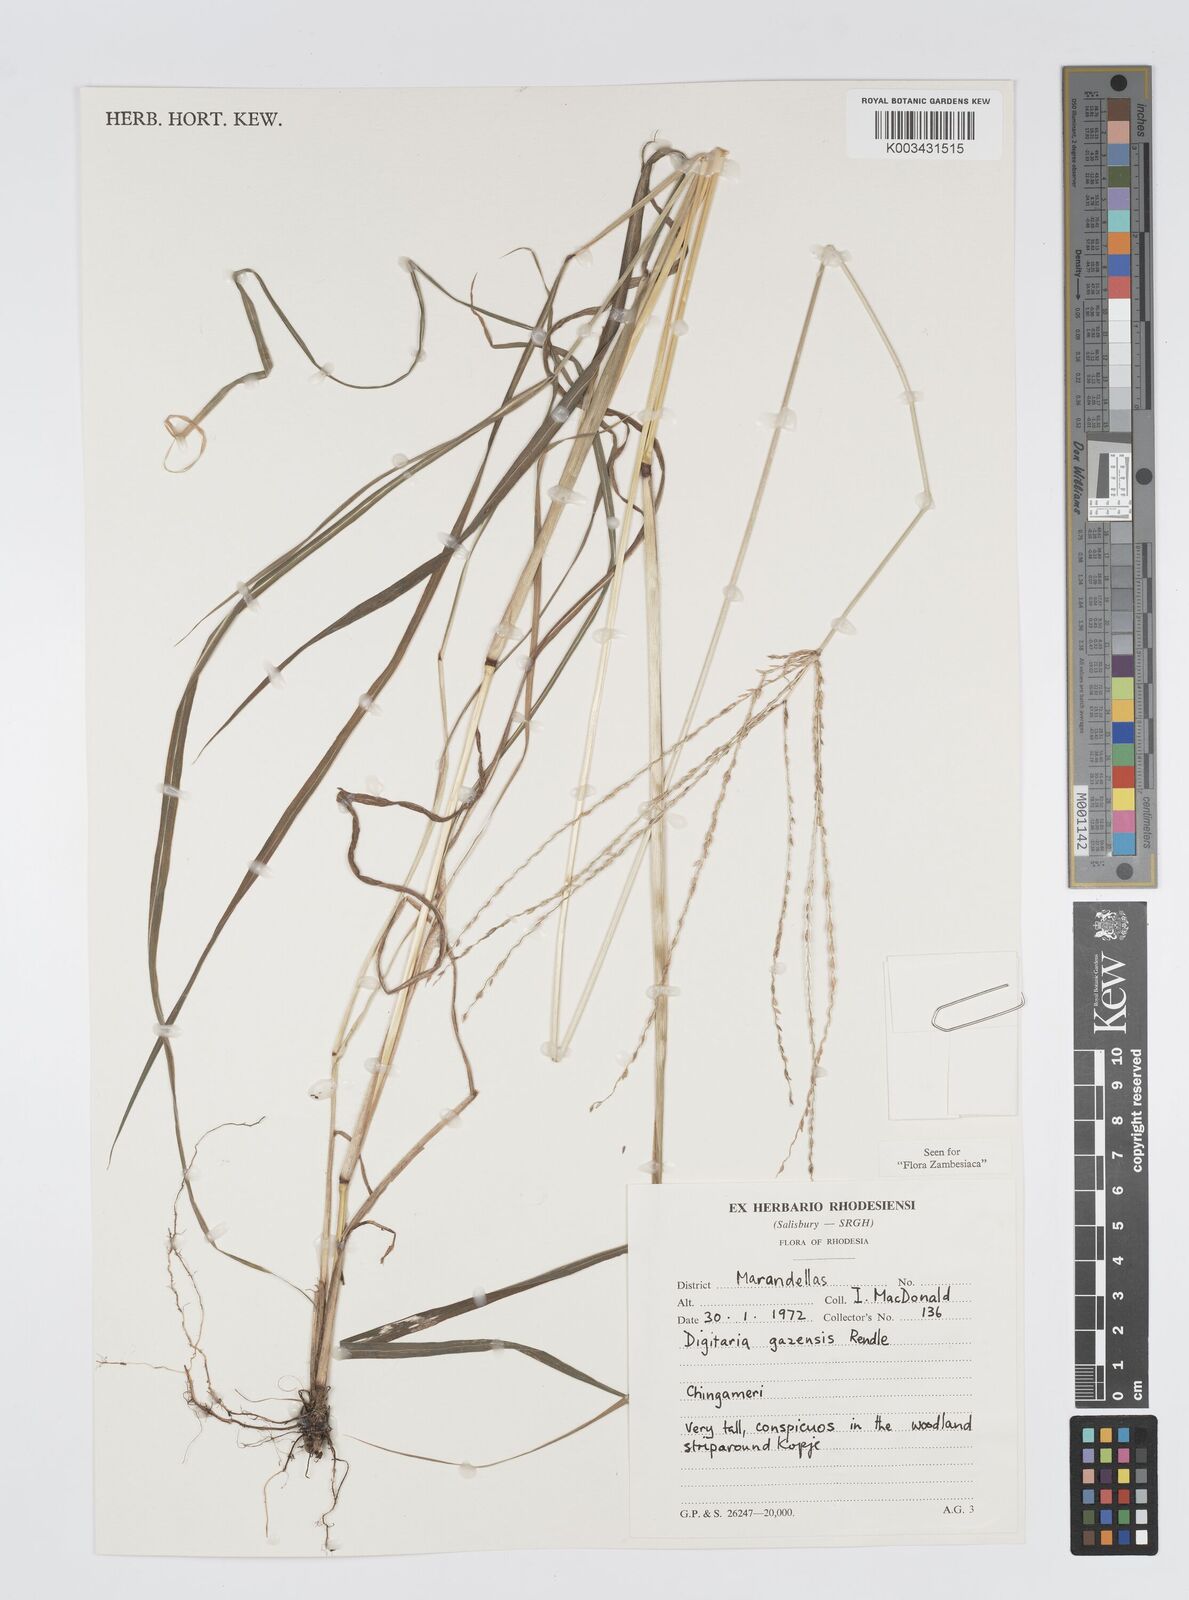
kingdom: Plantae
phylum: Tracheophyta
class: Liliopsida
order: Poales
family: Poaceae
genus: Digitaria
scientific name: Digitaria gazensis
